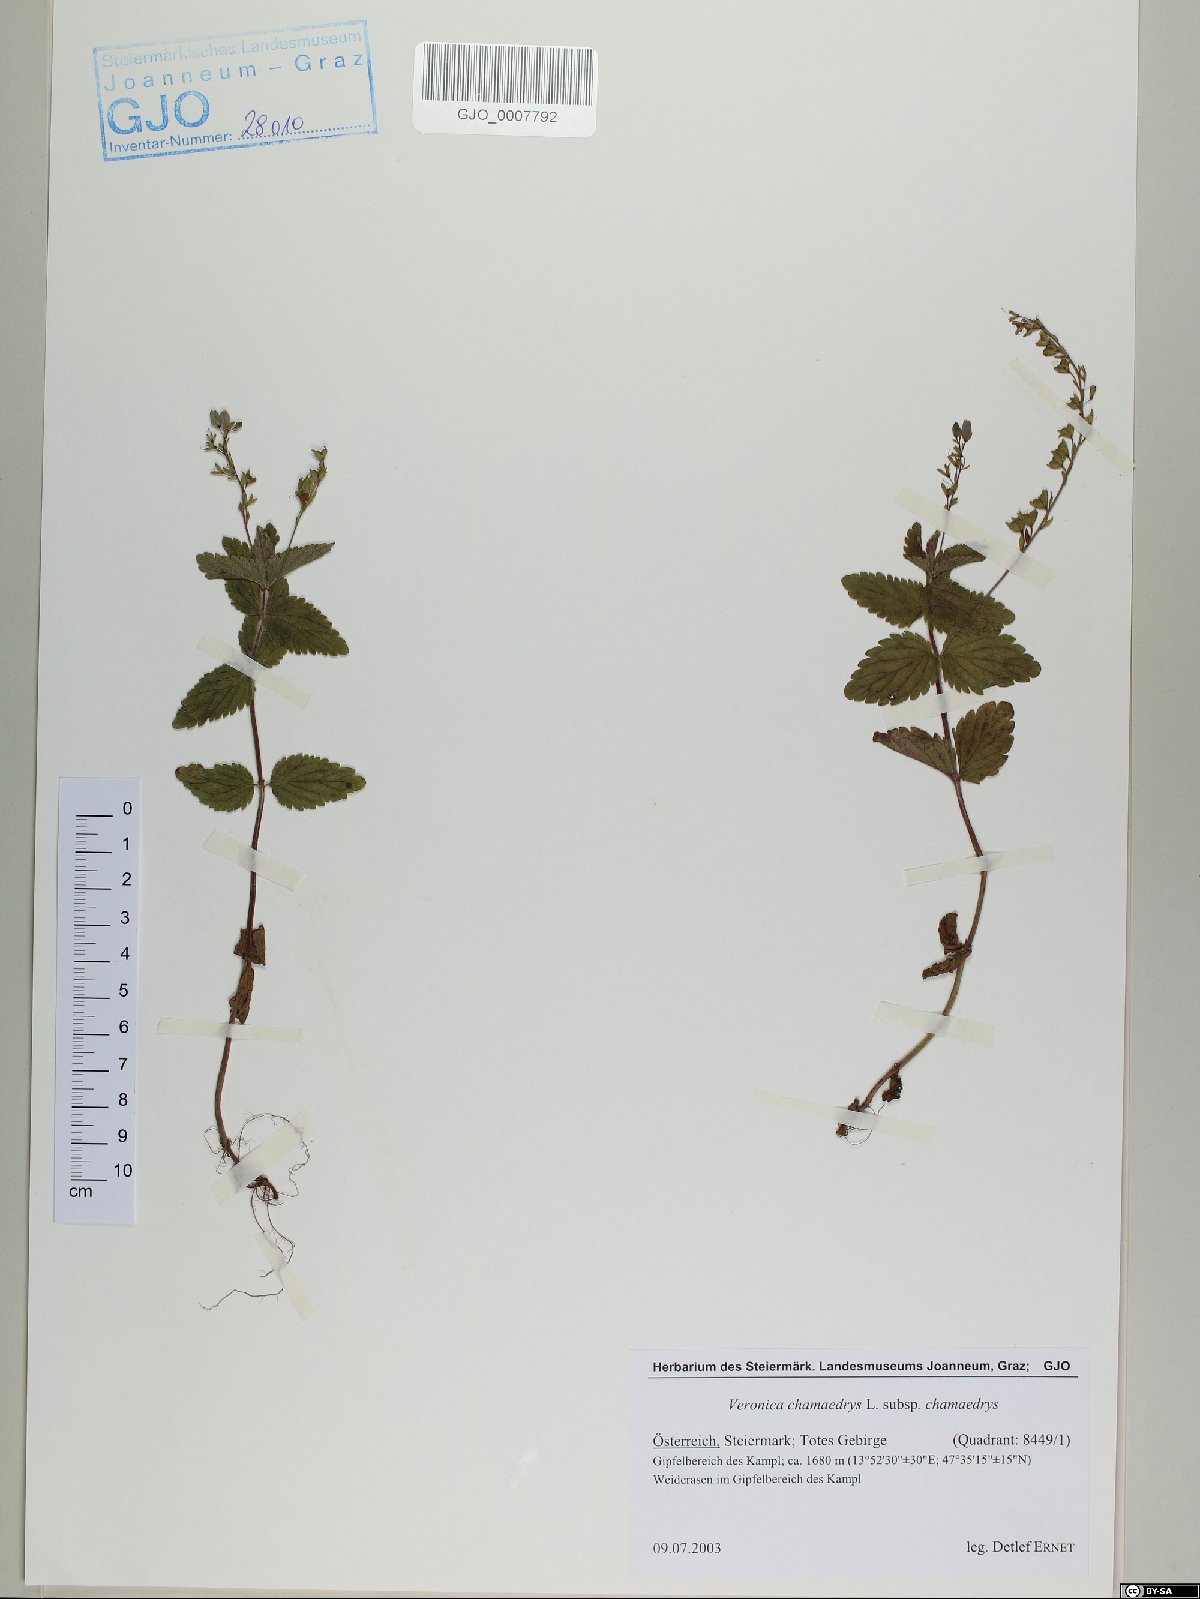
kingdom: Plantae
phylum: Tracheophyta
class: Magnoliopsida
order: Lamiales
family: Plantaginaceae
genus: Veronica
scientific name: Veronica chamaedrys
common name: Germander speedwell
